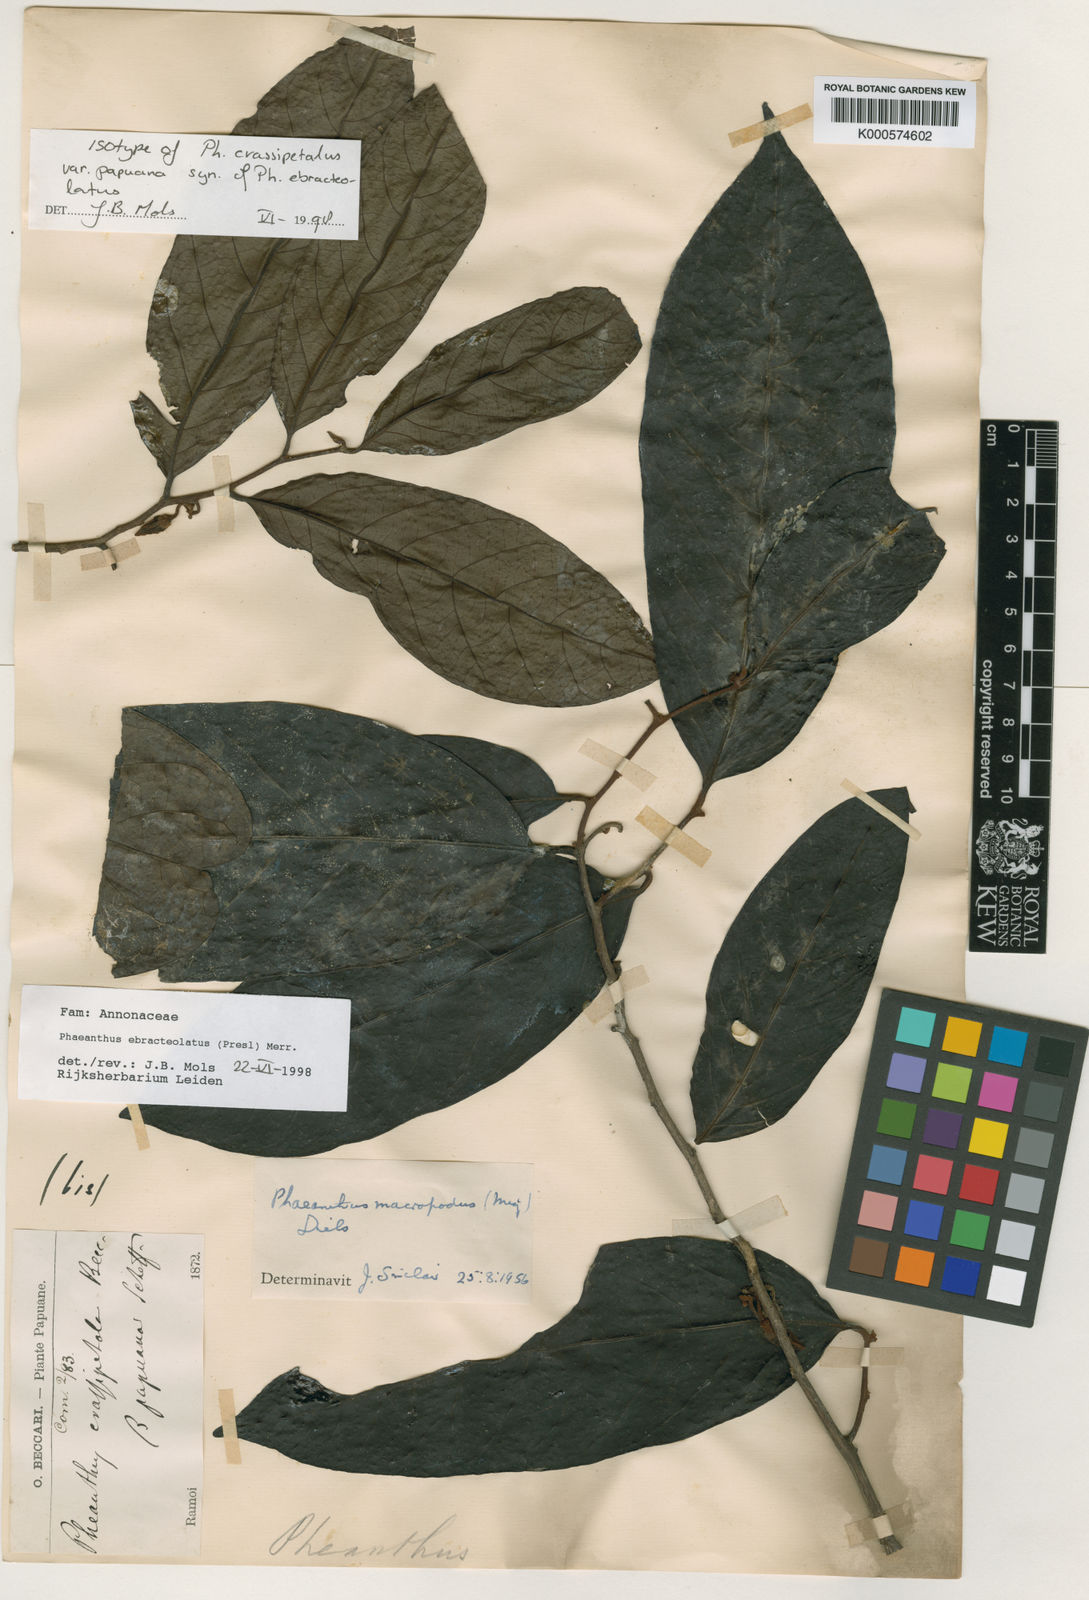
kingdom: Plantae
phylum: Tracheophyta
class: Magnoliopsida
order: Magnoliales
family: Annonaceae
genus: Phaeanthus
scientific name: Phaeanthus ophthalmicus
